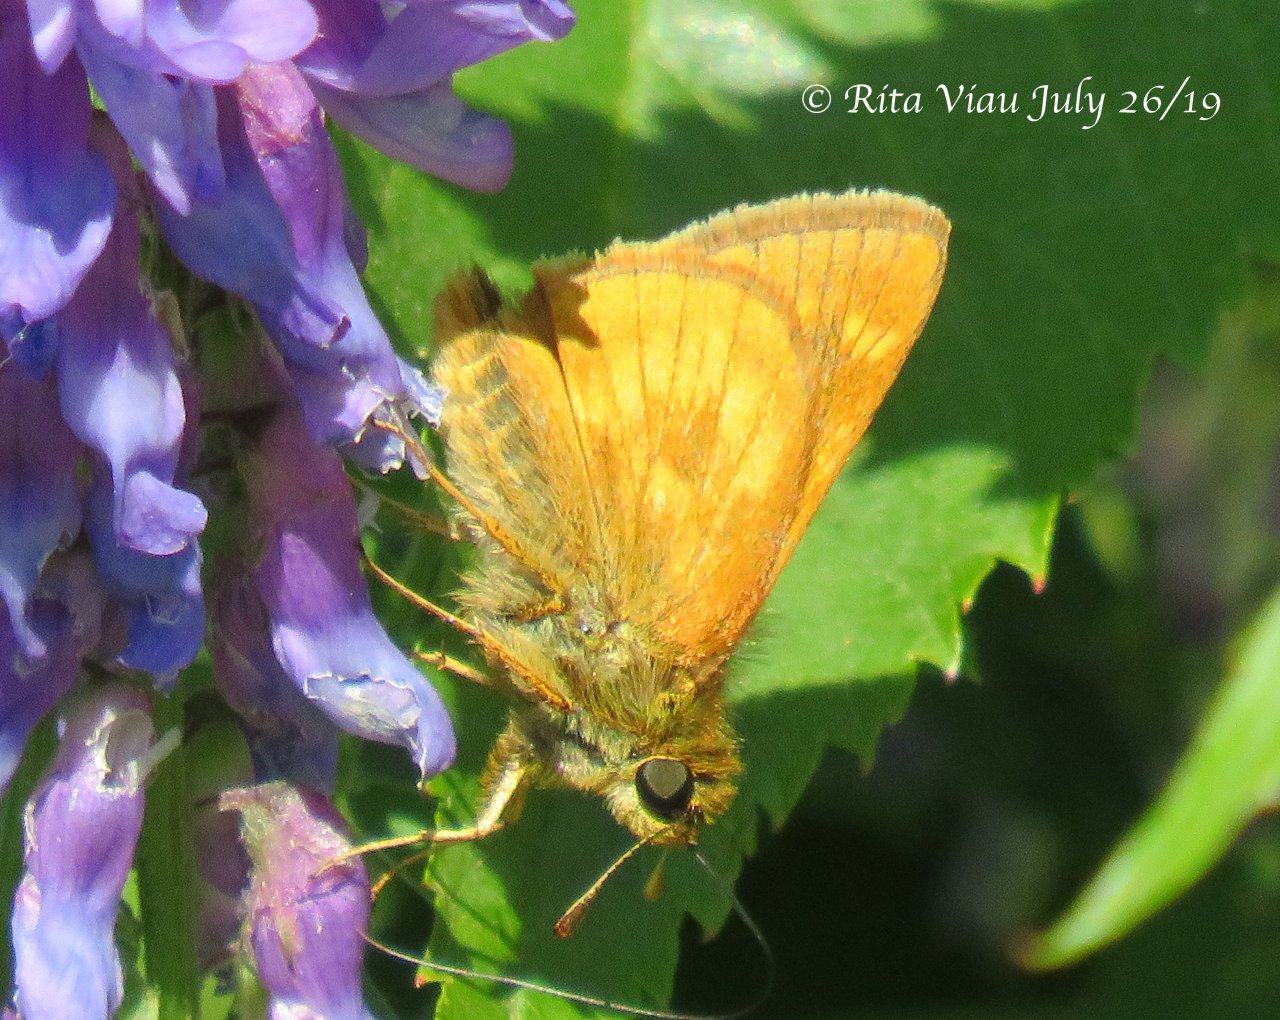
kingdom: Animalia
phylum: Arthropoda
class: Insecta
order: Lepidoptera
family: Hesperiidae
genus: Polites
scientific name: Polites
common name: Long Dash Skipper
